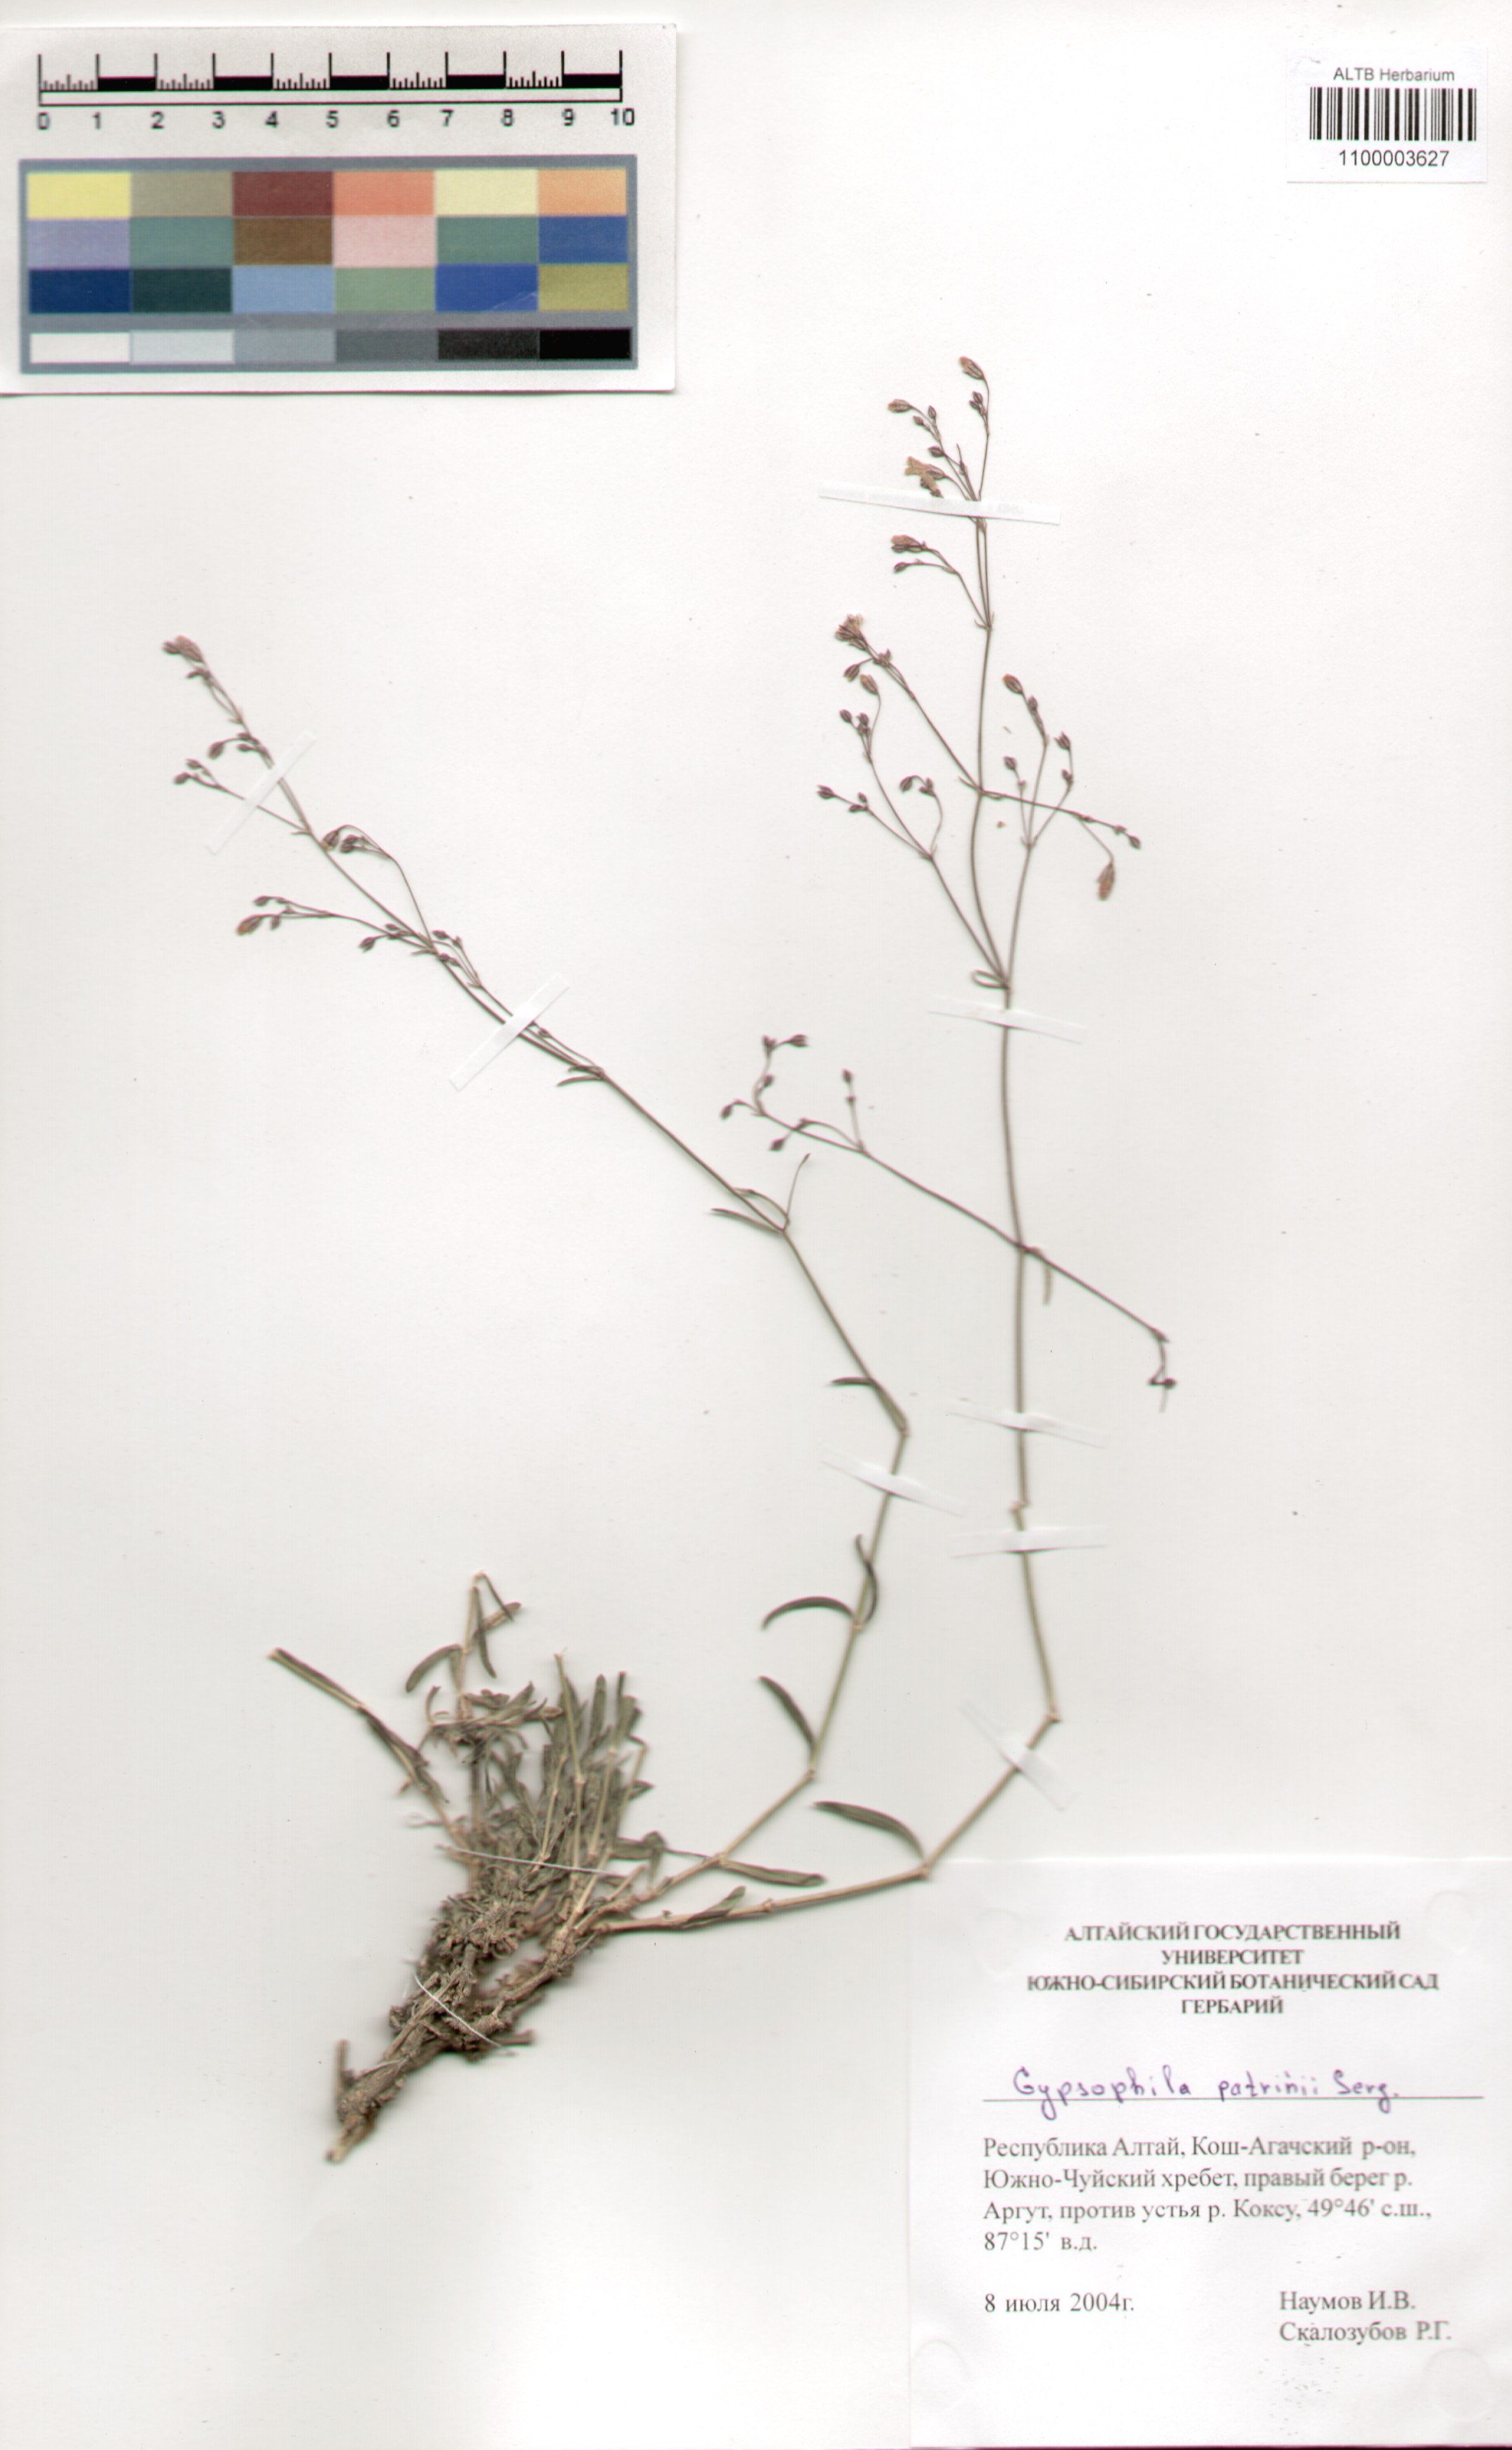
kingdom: Plantae
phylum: Tracheophyta
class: Magnoliopsida
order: Caryophyllales
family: Caryophyllaceae
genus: Gypsophila
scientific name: Gypsophila patrinii
